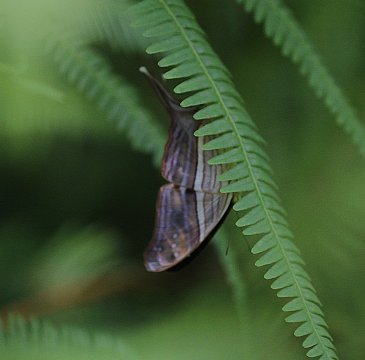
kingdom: Animalia
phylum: Arthropoda
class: Insecta
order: Lepidoptera
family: Nymphalidae
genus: Marpesia
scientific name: Marpesia chiron
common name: Many-banded Daggerwing
